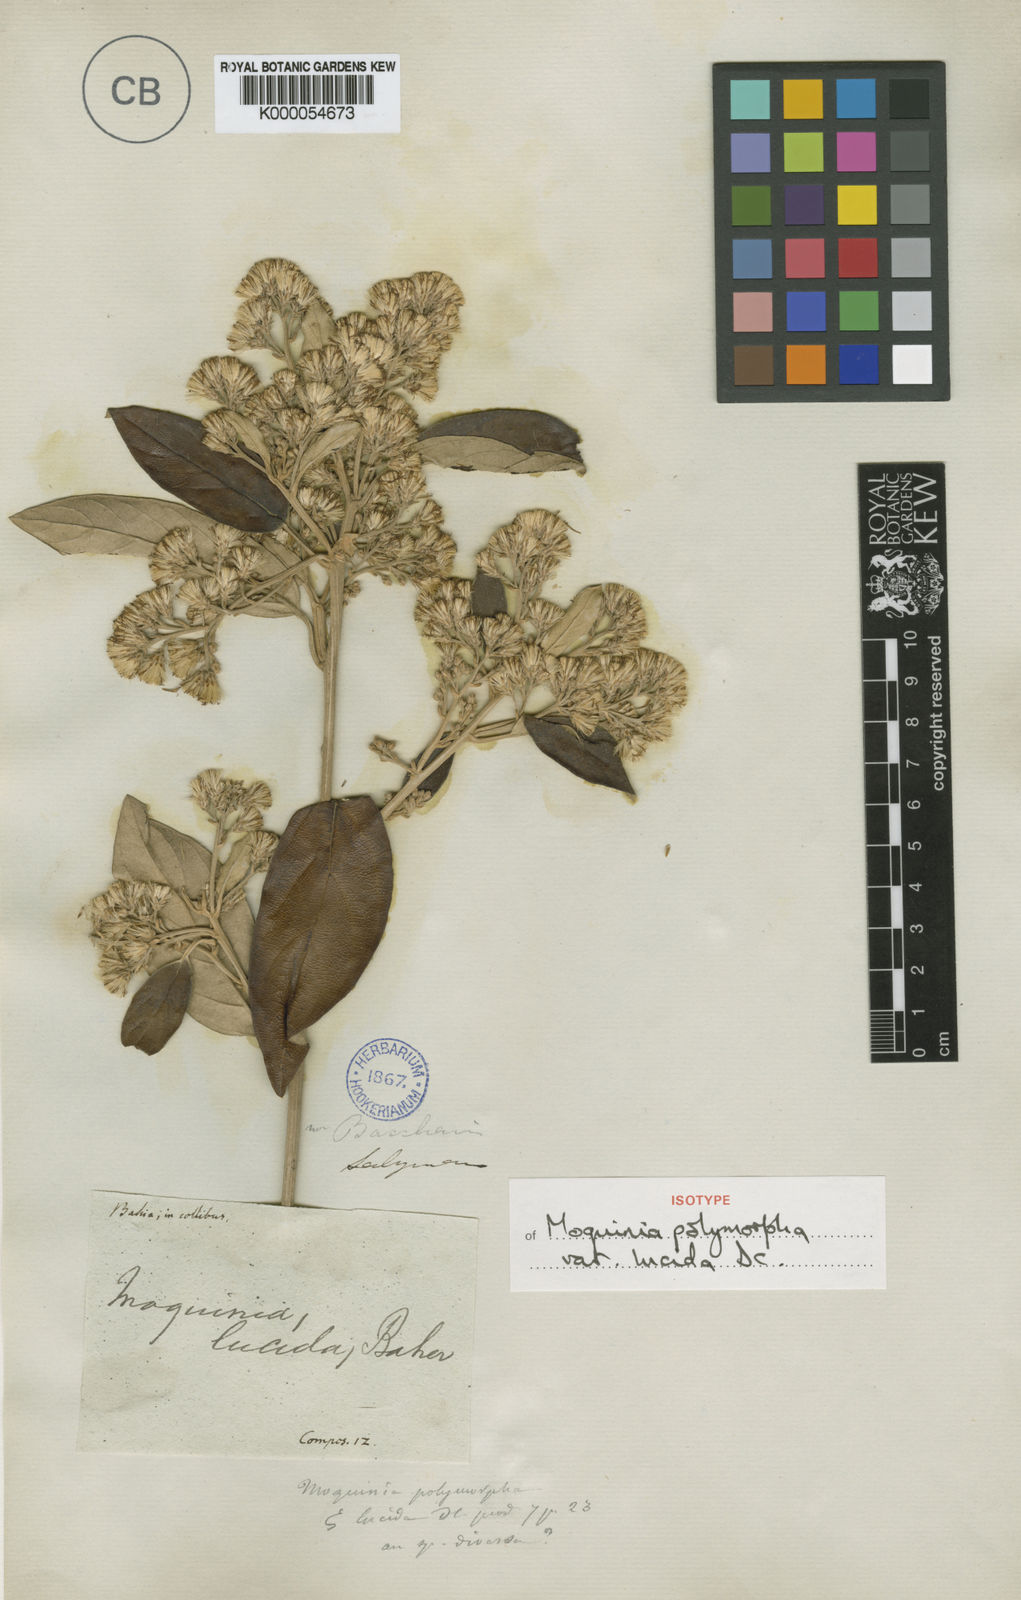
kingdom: Plantae
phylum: Tracheophyta
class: Magnoliopsida
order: Asterales
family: Asteraceae
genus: Moquiniastrum
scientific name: Moquiniastrum oligocephalum
